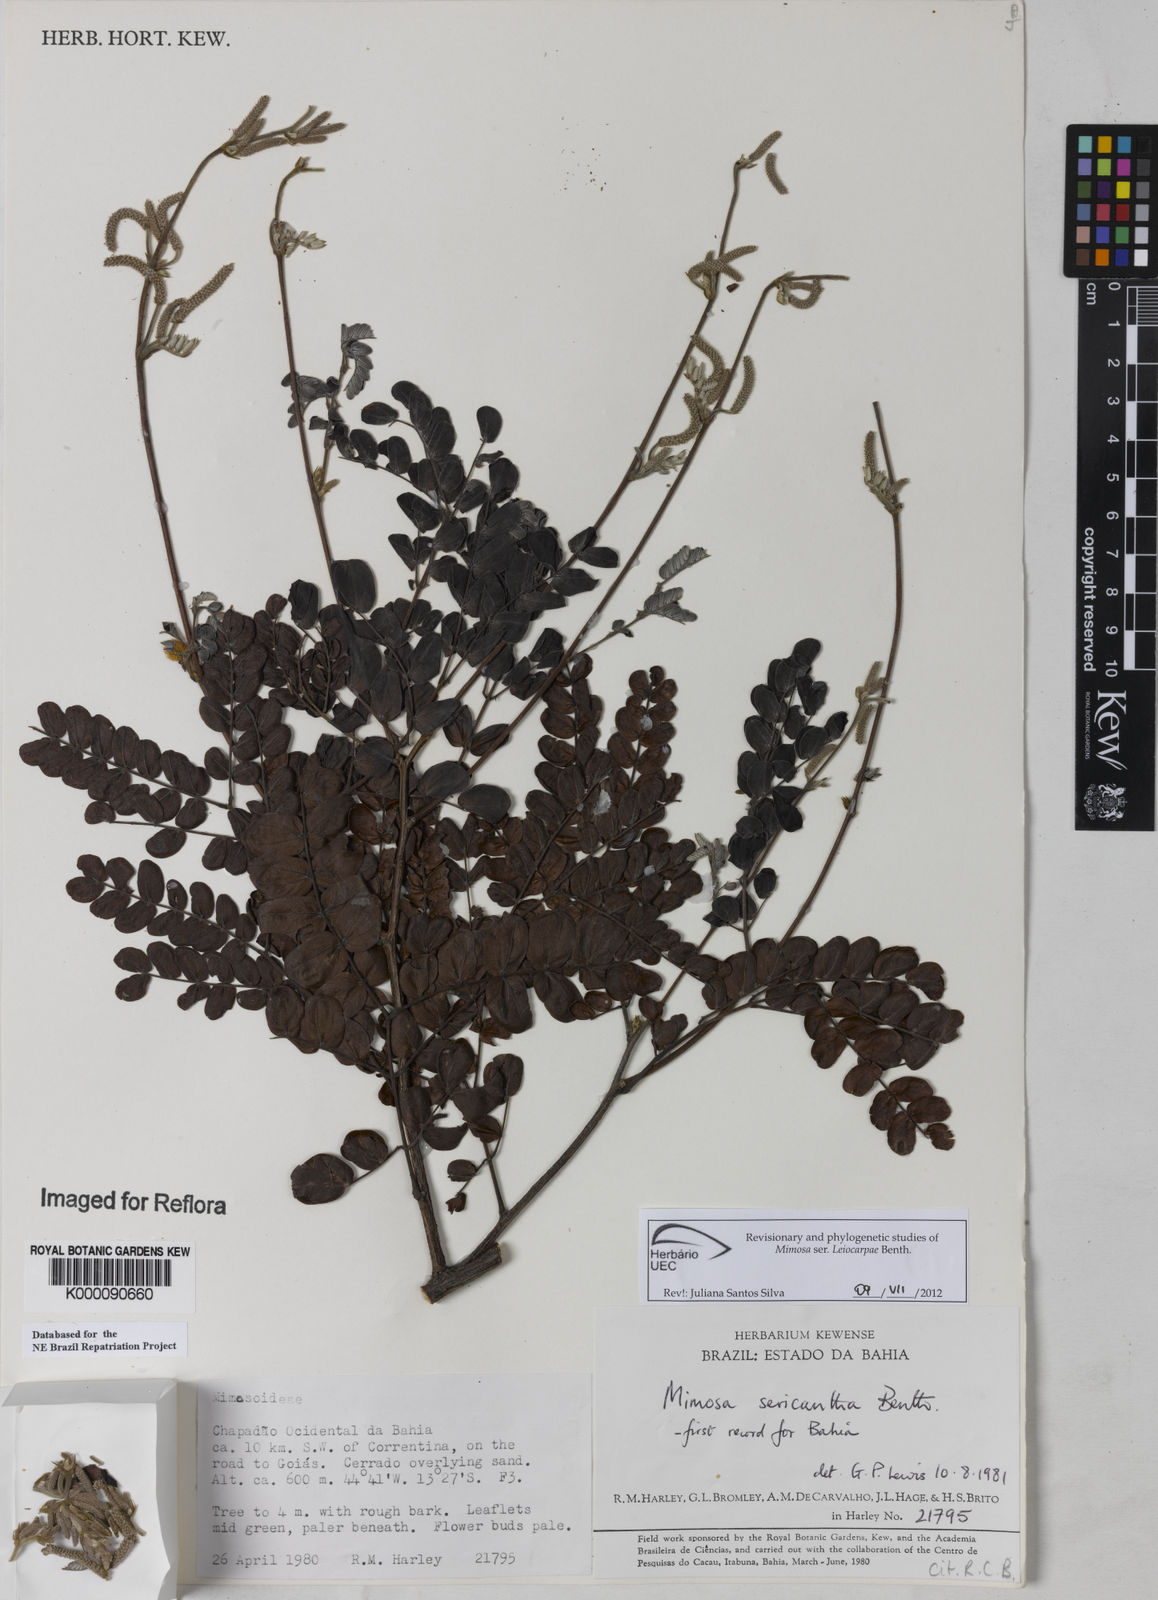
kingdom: Plantae
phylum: Tracheophyta
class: Magnoliopsida
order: Fabales
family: Fabaceae
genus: Mimosa
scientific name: Mimosa sericantha
